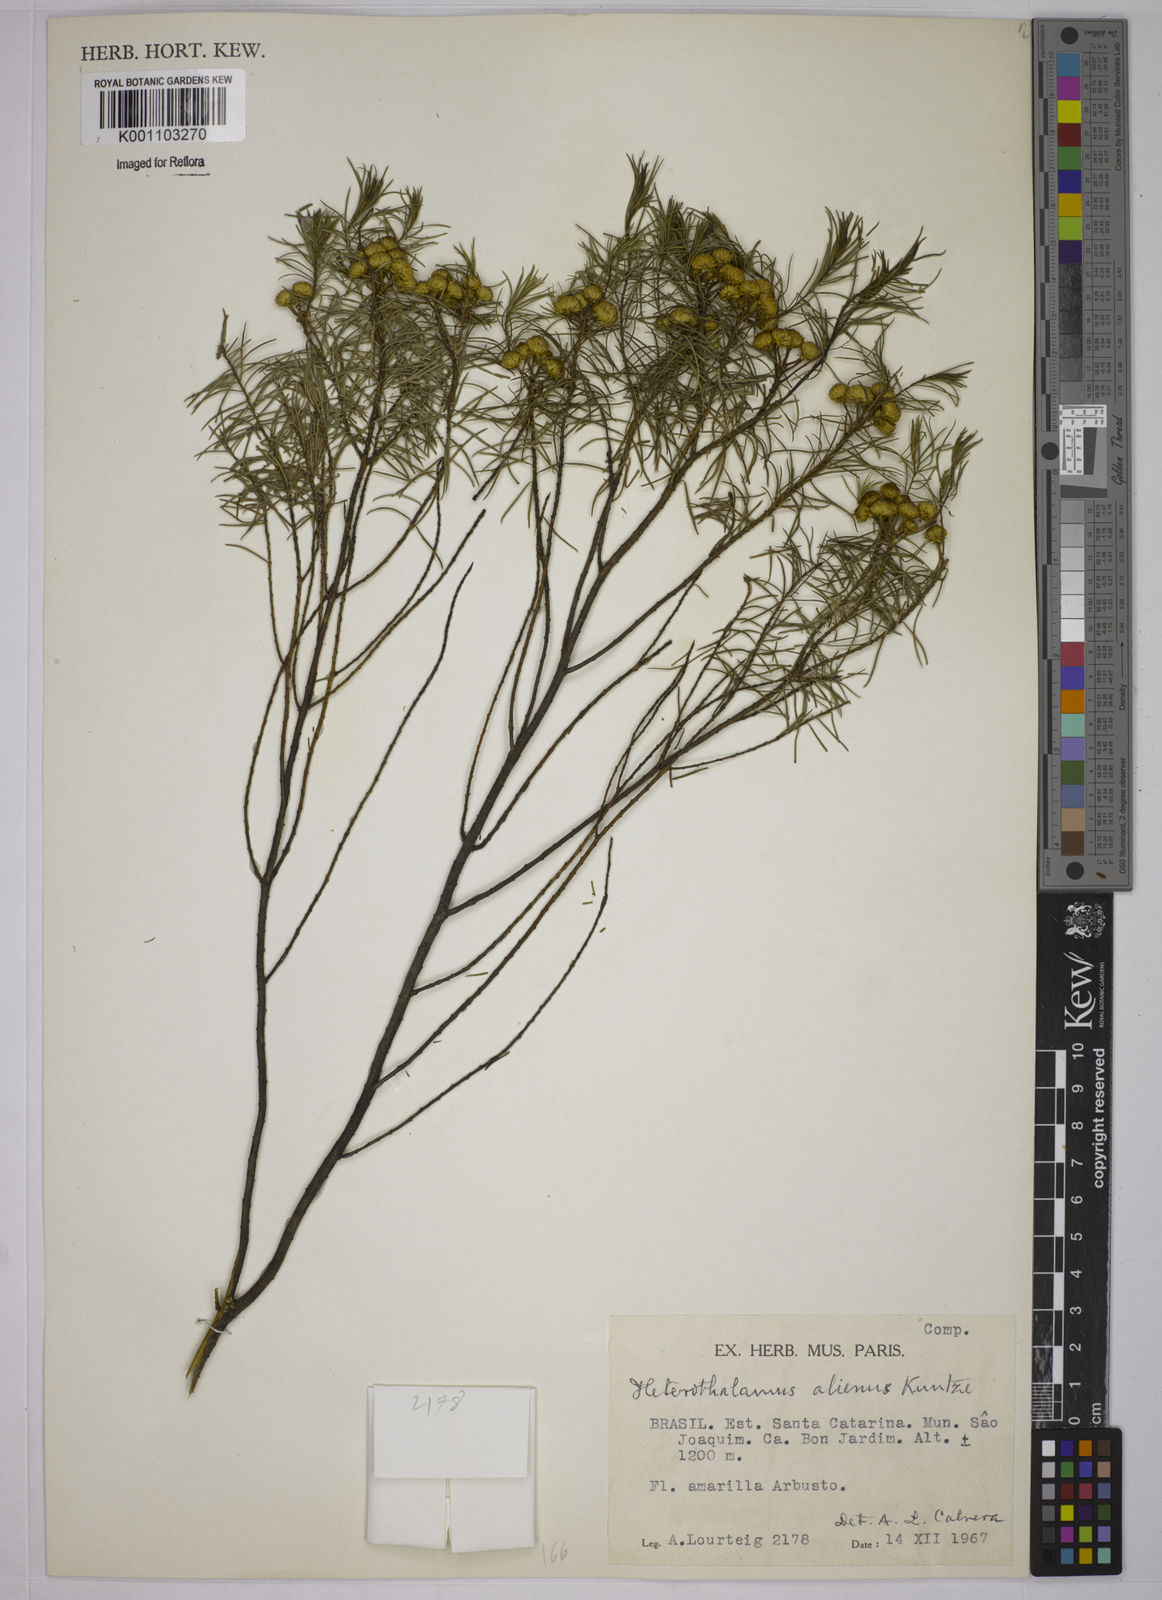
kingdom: Plantae
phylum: Tracheophyta
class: Magnoliopsida
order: Asterales
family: Asteraceae
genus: Baccharis
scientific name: Baccharis aliena
